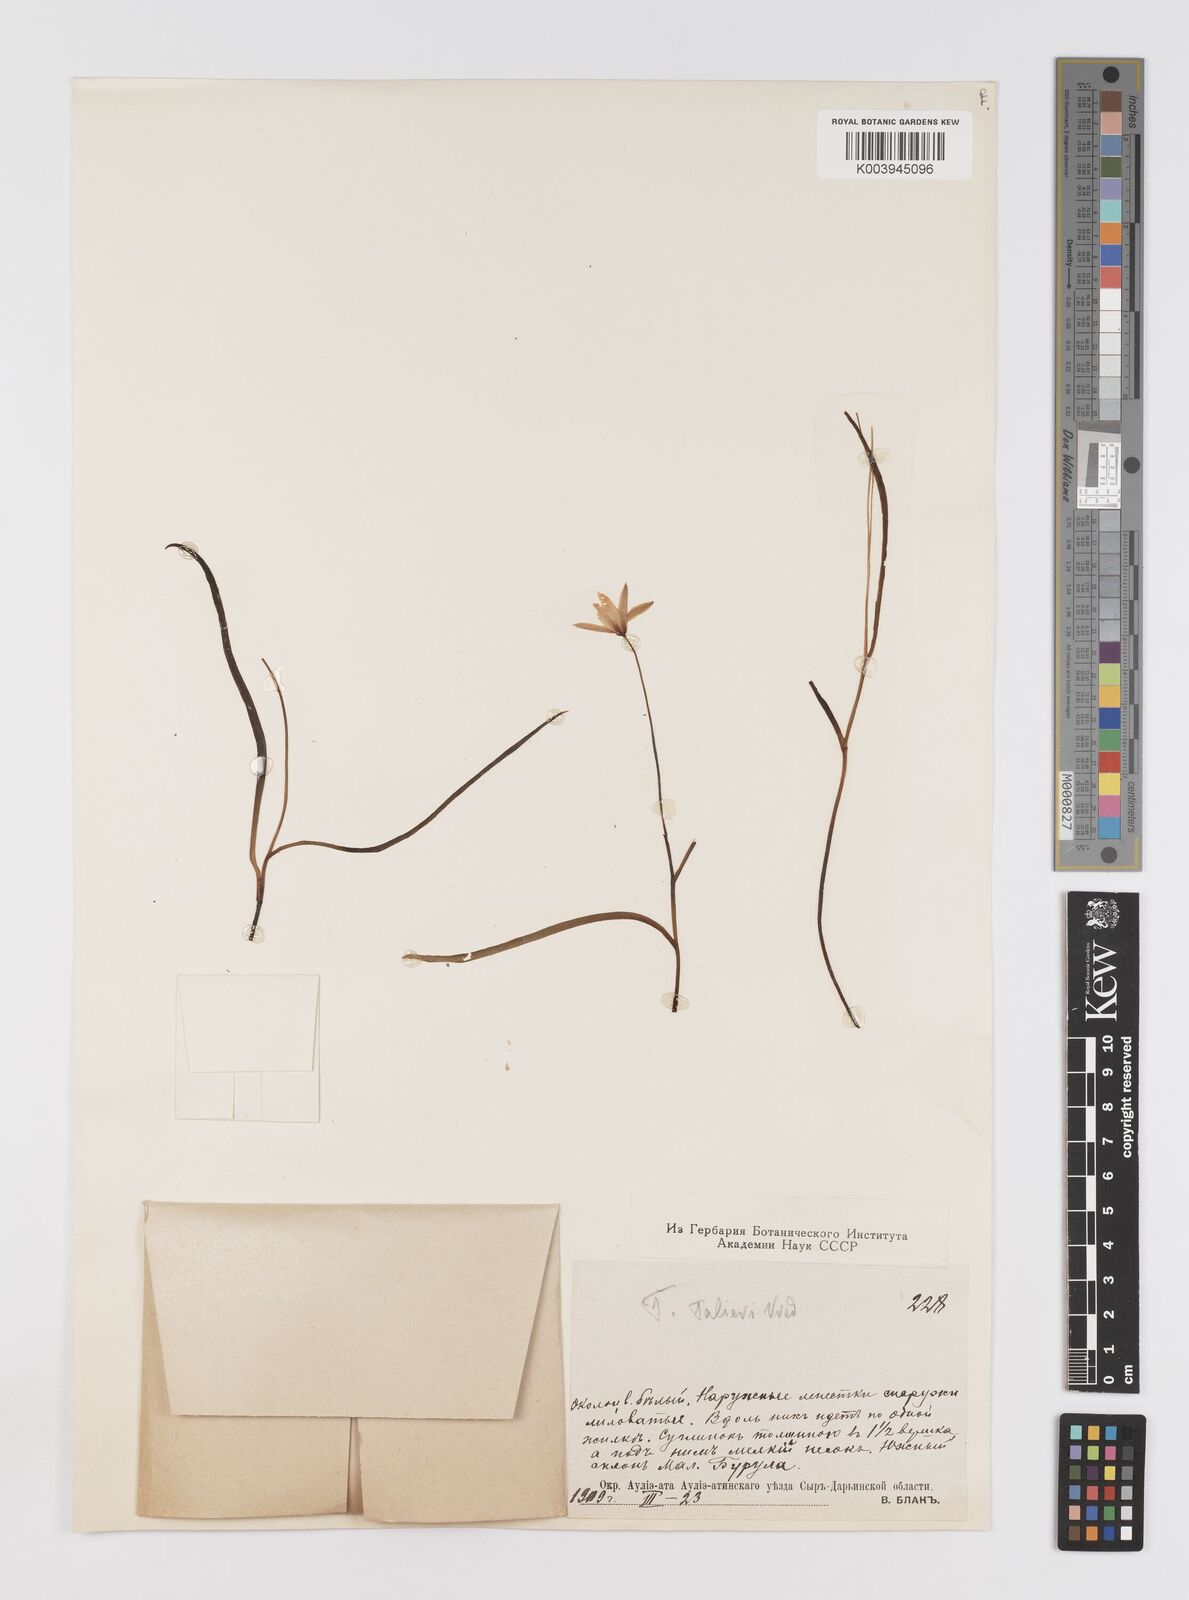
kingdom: Plantae
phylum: Tracheophyta
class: Liliopsida
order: Liliales
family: Liliaceae
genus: Tulipa
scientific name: Tulipa sylvestris
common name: Wild tulip
